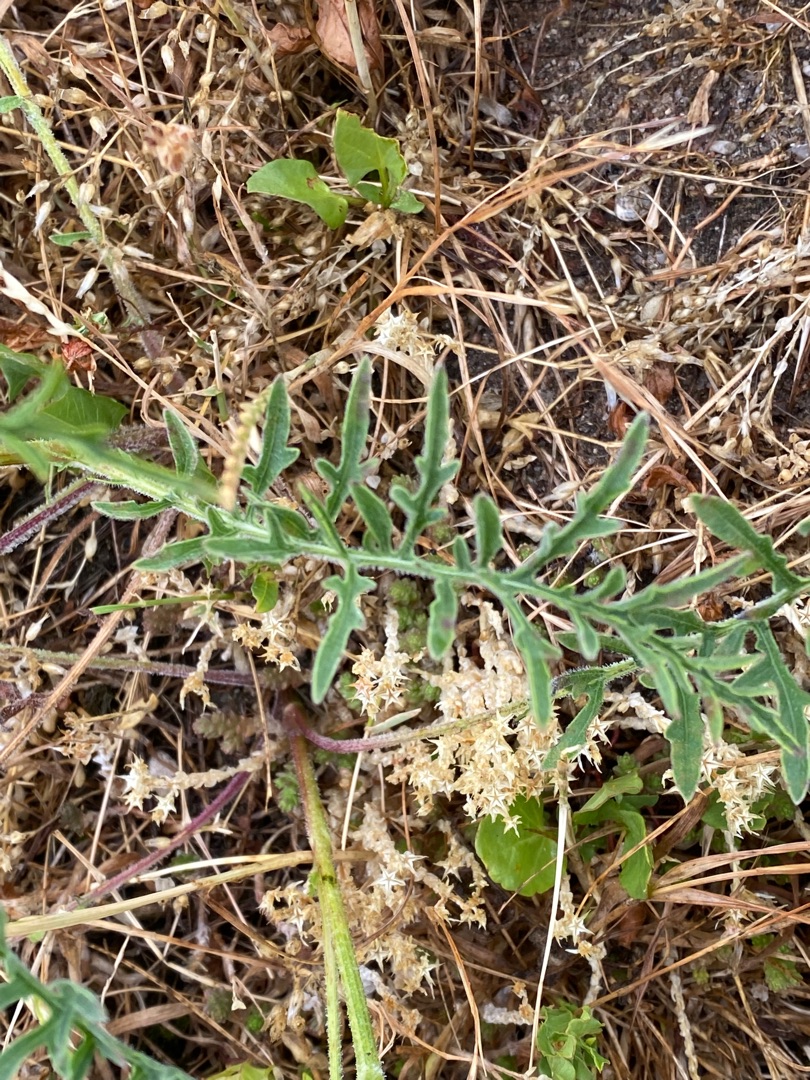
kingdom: Plantae
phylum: Tracheophyta
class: Magnoliopsida
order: Asterales
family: Asteraceae
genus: Centaurea
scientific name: Centaurea scabiosa
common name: Stor knopurt
